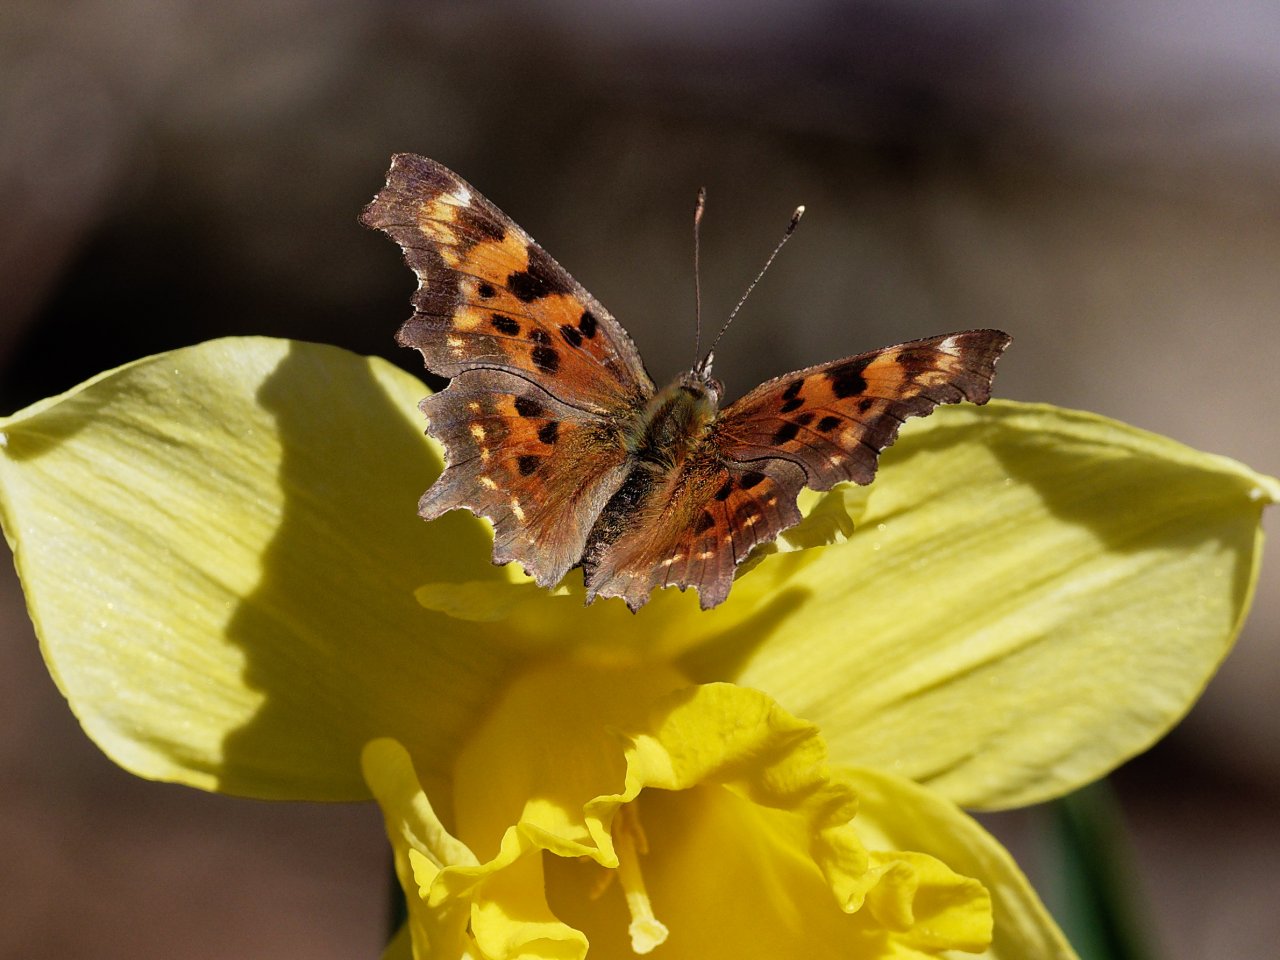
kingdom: Animalia
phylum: Arthropoda
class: Insecta
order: Lepidoptera
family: Nymphalidae
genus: Polygonia
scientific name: Polygonia faunus
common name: Green Comma
